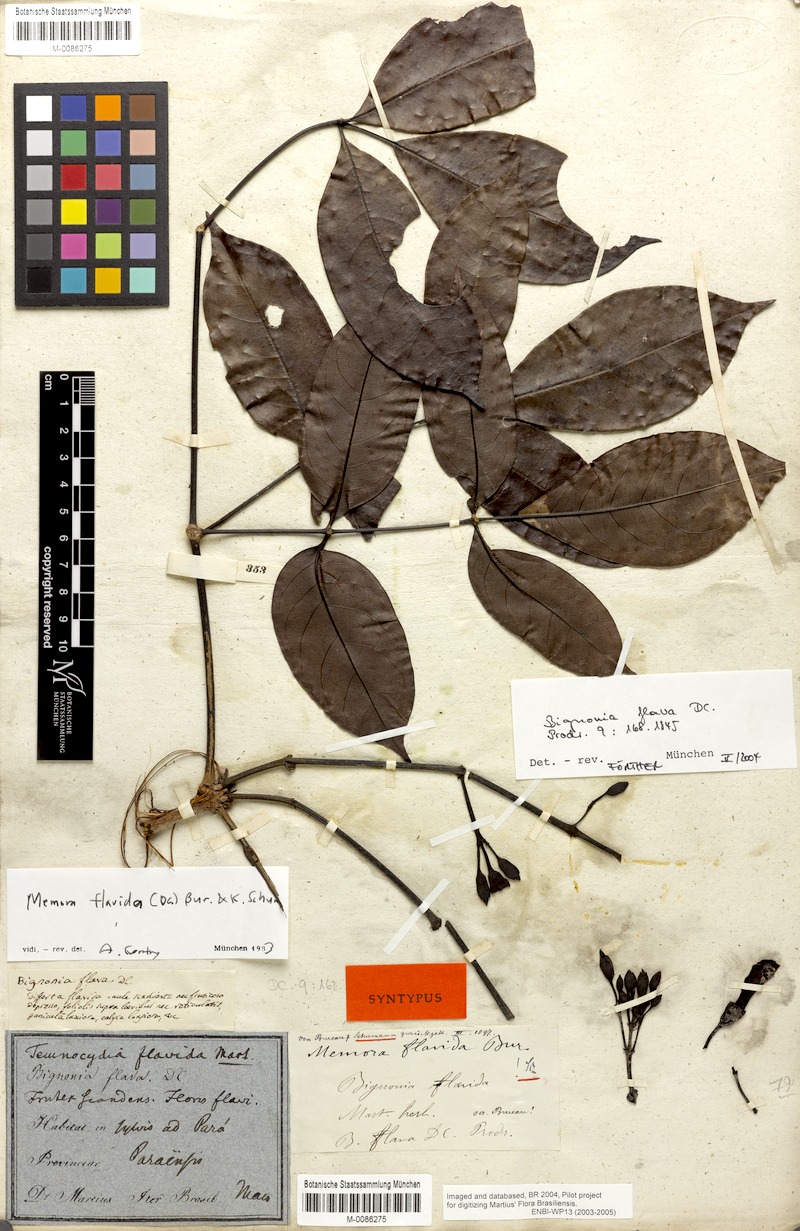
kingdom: Plantae
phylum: Tracheophyta
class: Magnoliopsida
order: Lamiales
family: Bignoniaceae
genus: Adenocalymma
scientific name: Adenocalymma neoflavidum
